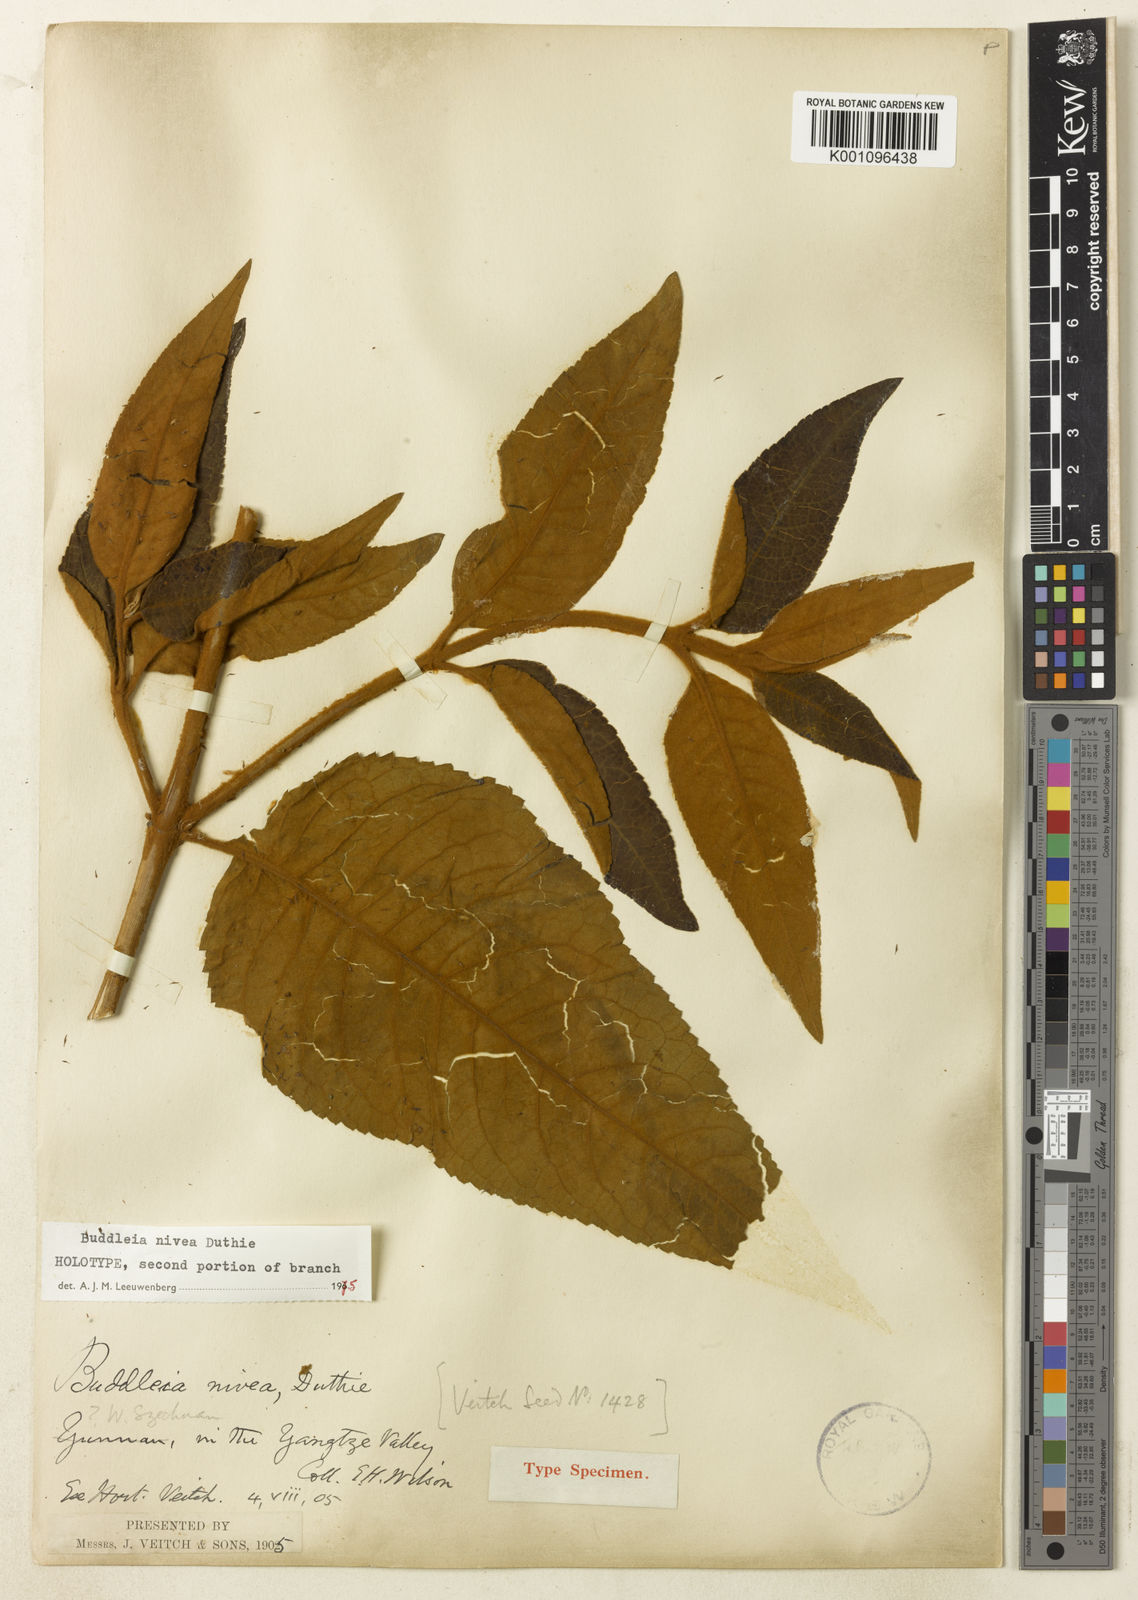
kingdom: Plantae
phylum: Tracheophyta
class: Magnoliopsida
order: Lamiales
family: Scrophulariaceae
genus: Buddleja
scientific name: Buddleja nivea
